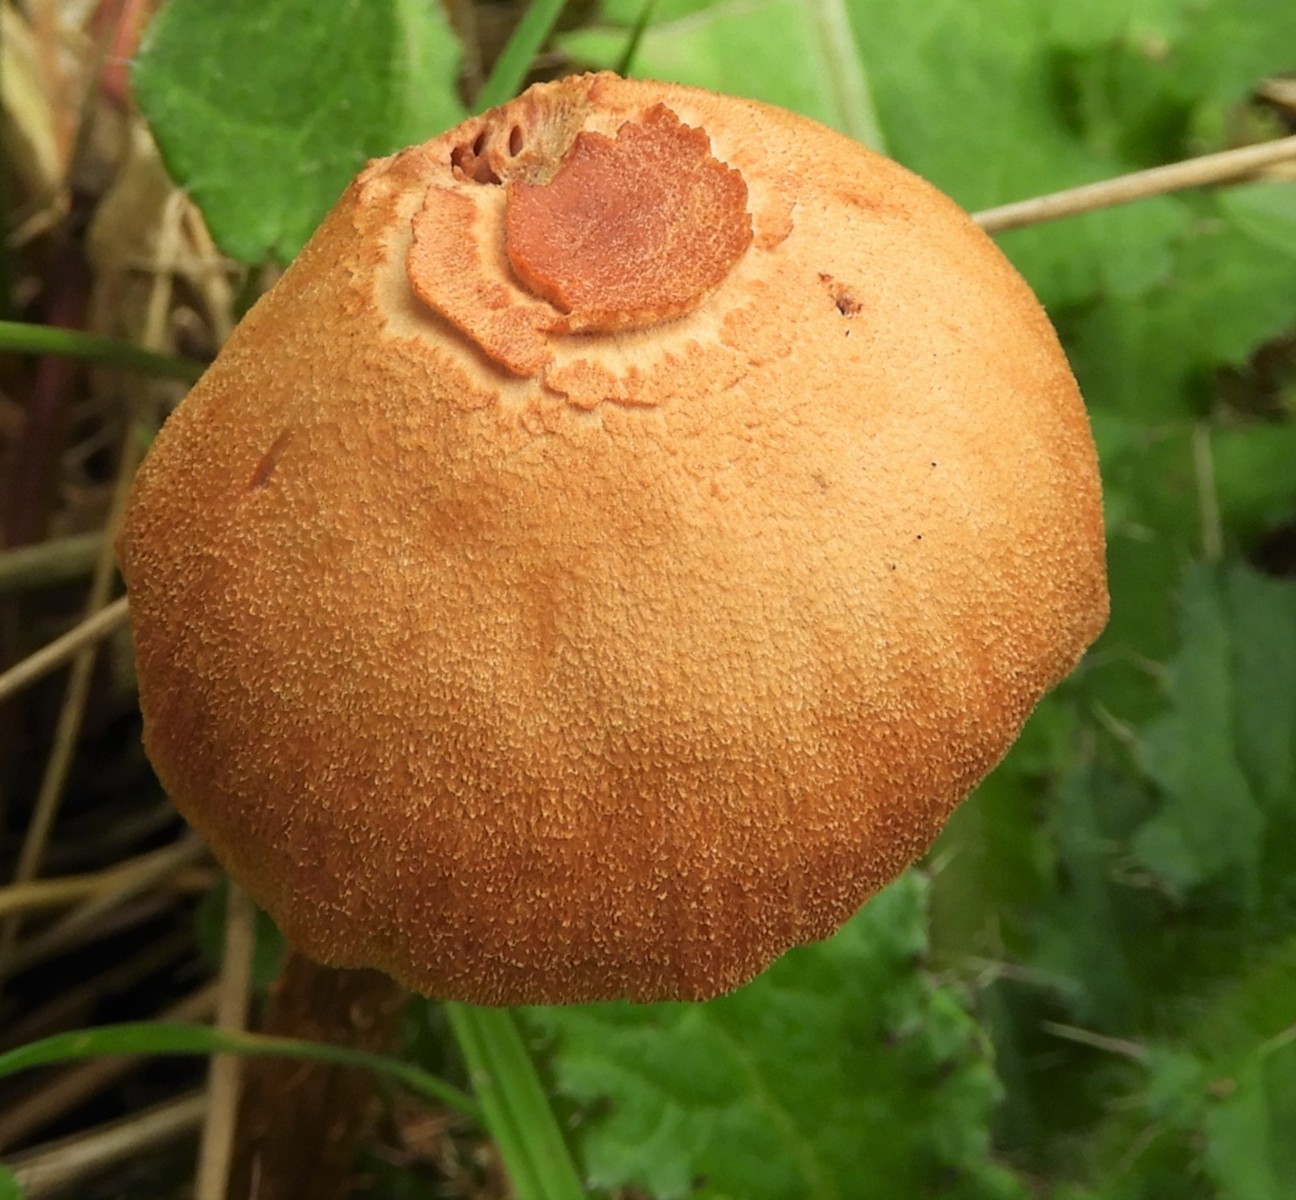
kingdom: Fungi
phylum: Basidiomycota
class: Agaricomycetes
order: Agaricales
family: Hydnangiaceae
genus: Laccaria
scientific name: Laccaria proxima
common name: stor ametysthat
